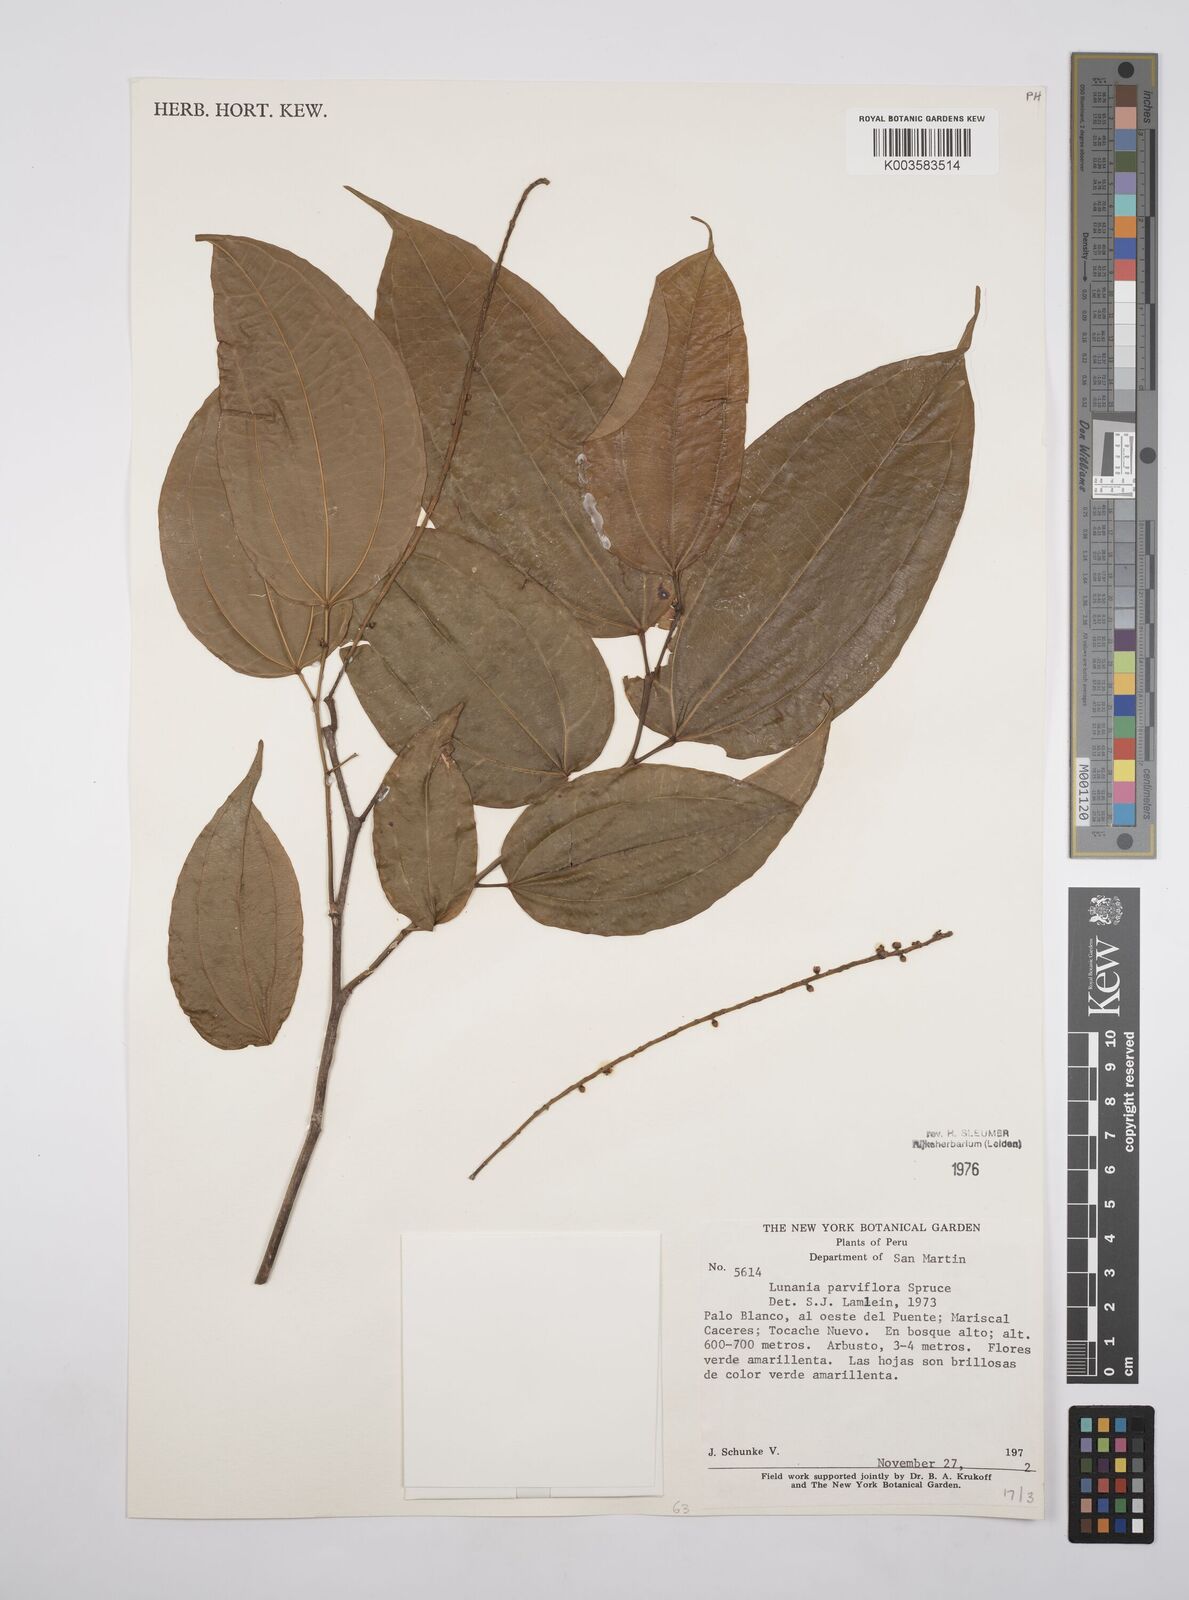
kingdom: Plantae
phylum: Tracheophyta
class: Magnoliopsida
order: Malpighiales
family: Salicaceae
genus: Lunania
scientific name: Lunania parviflora
